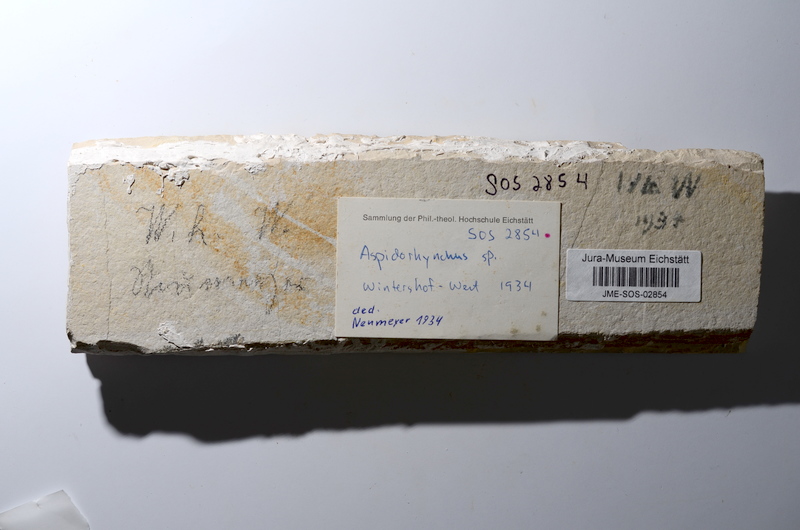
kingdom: Animalia
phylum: Chordata
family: Aspidorhynchidae
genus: Aspidorhynchus
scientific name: Aspidorhynchus acutirostris
